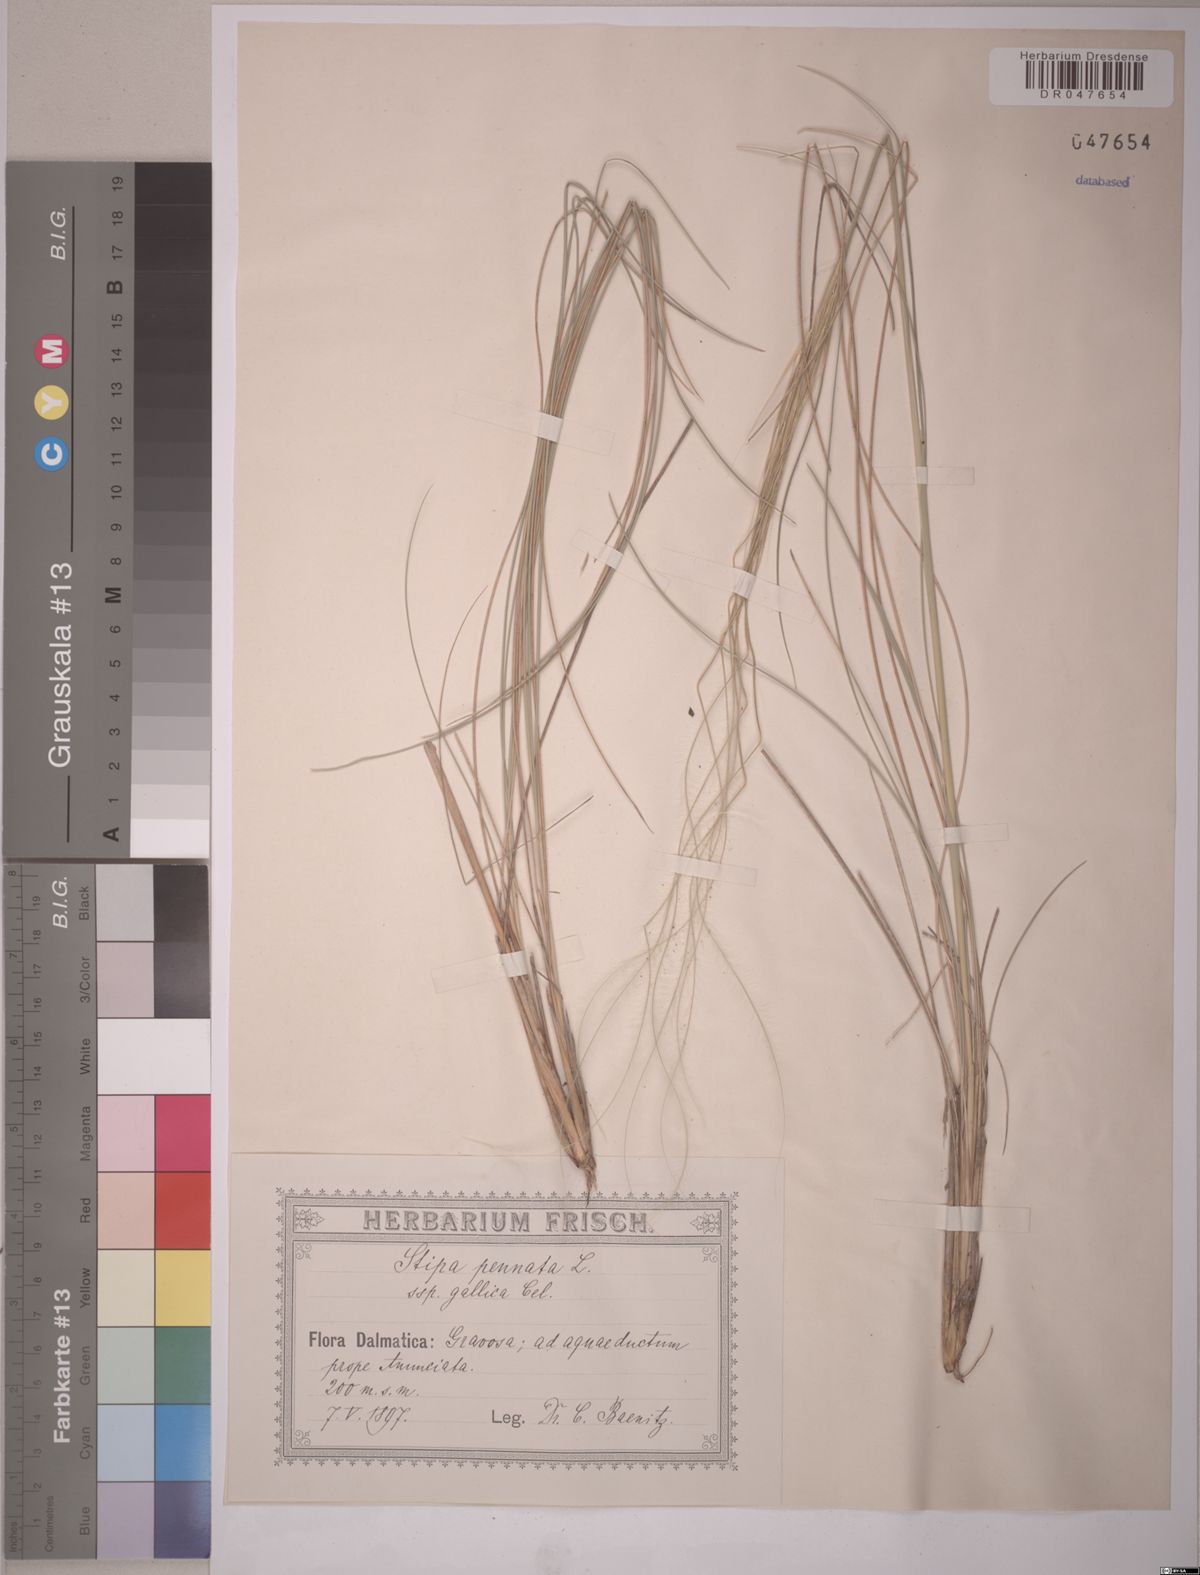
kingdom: Plantae
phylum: Tracheophyta
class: Liliopsida
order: Poales
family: Poaceae
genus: Stipa
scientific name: Stipa pennata
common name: European feather grass
